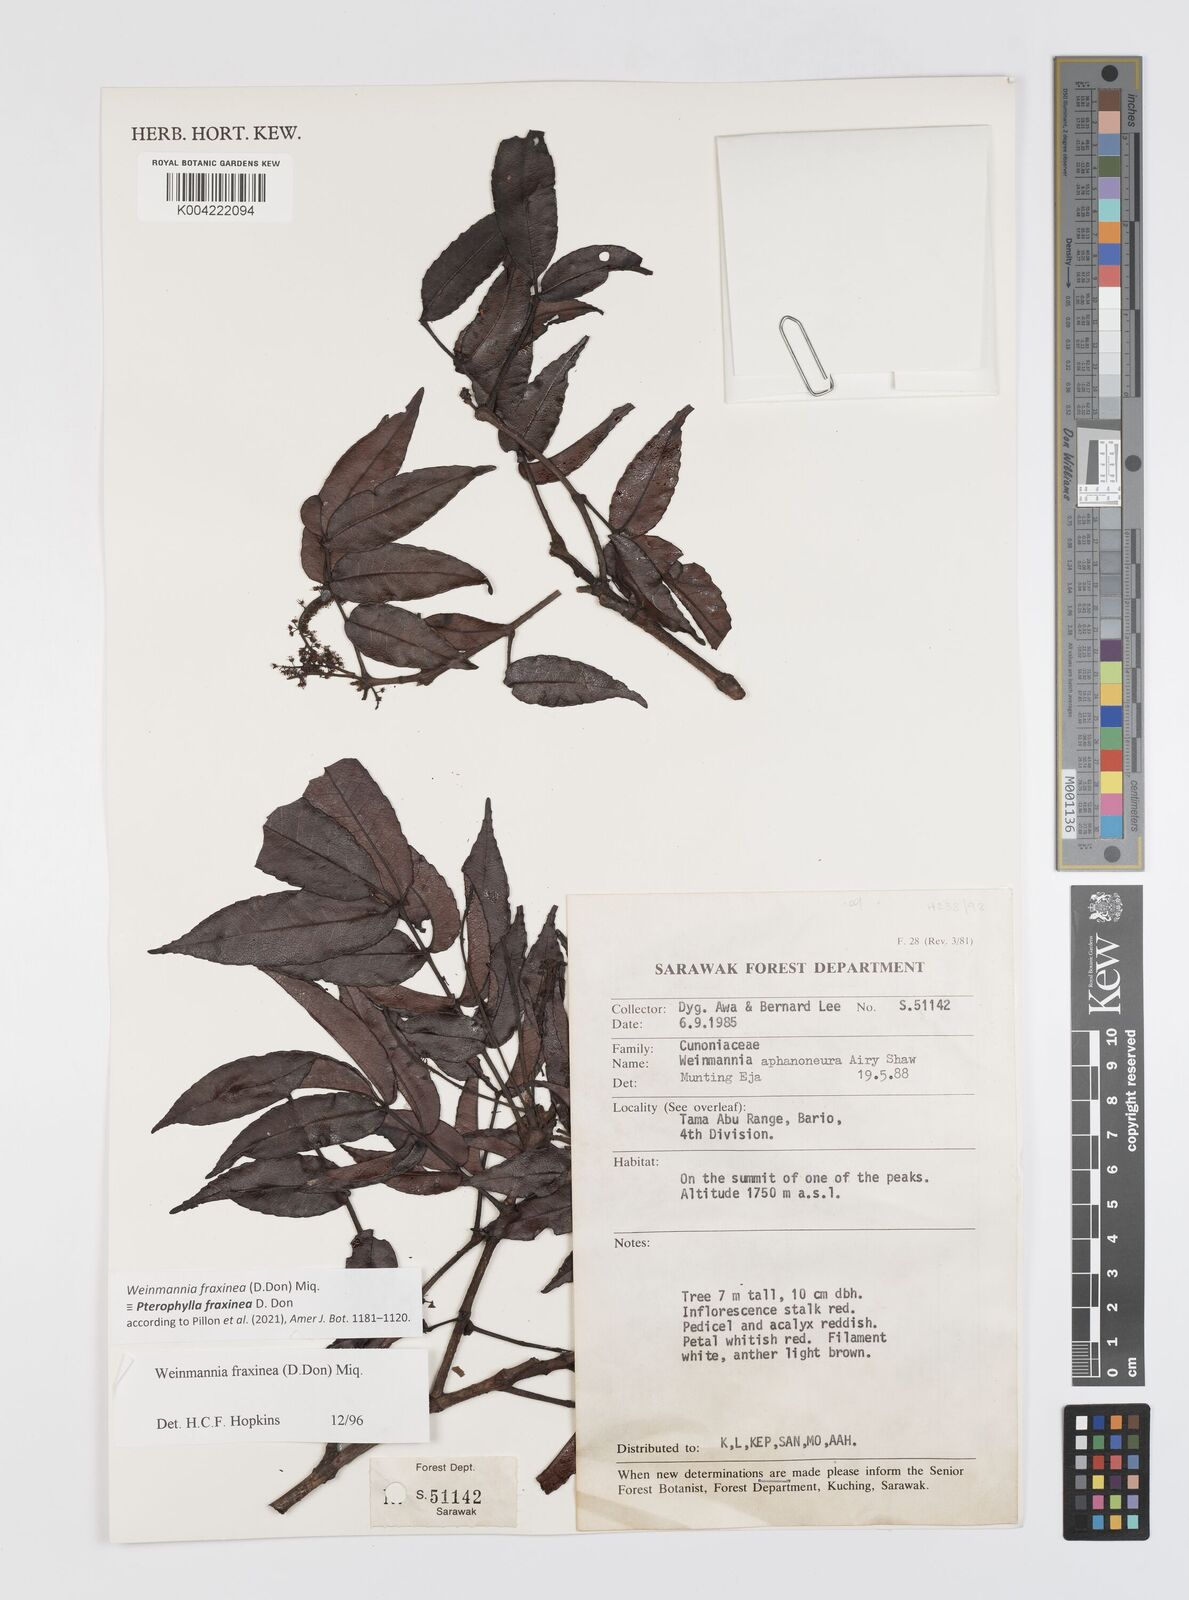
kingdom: Plantae
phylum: Tracheophyta
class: Magnoliopsida
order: Oxalidales
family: Cunoniaceae
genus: Pterophylla
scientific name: Pterophylla fraxinea
